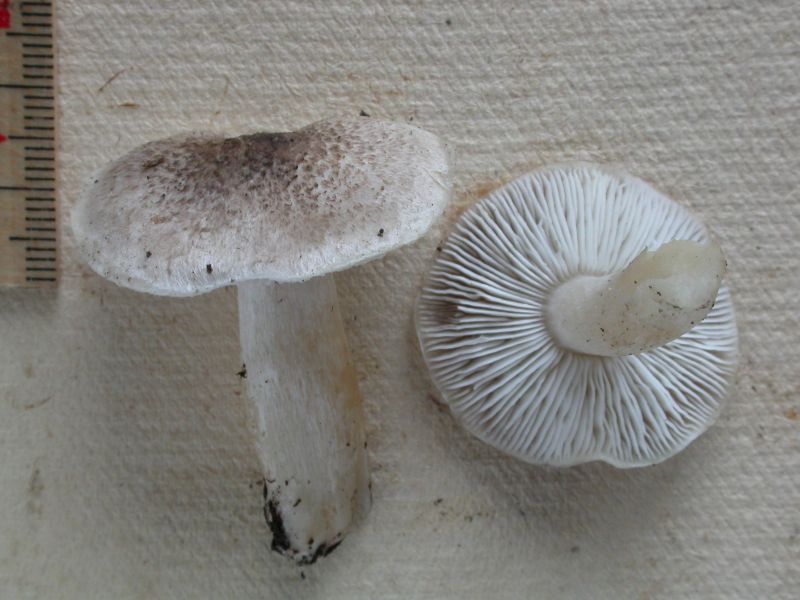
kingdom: Fungi
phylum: Basidiomycota
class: Agaricomycetes
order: Agaricales
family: Tricholomataceae
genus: Tricholoma
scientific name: Tricholoma scalpturatum
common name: gulplettet ridderhat
